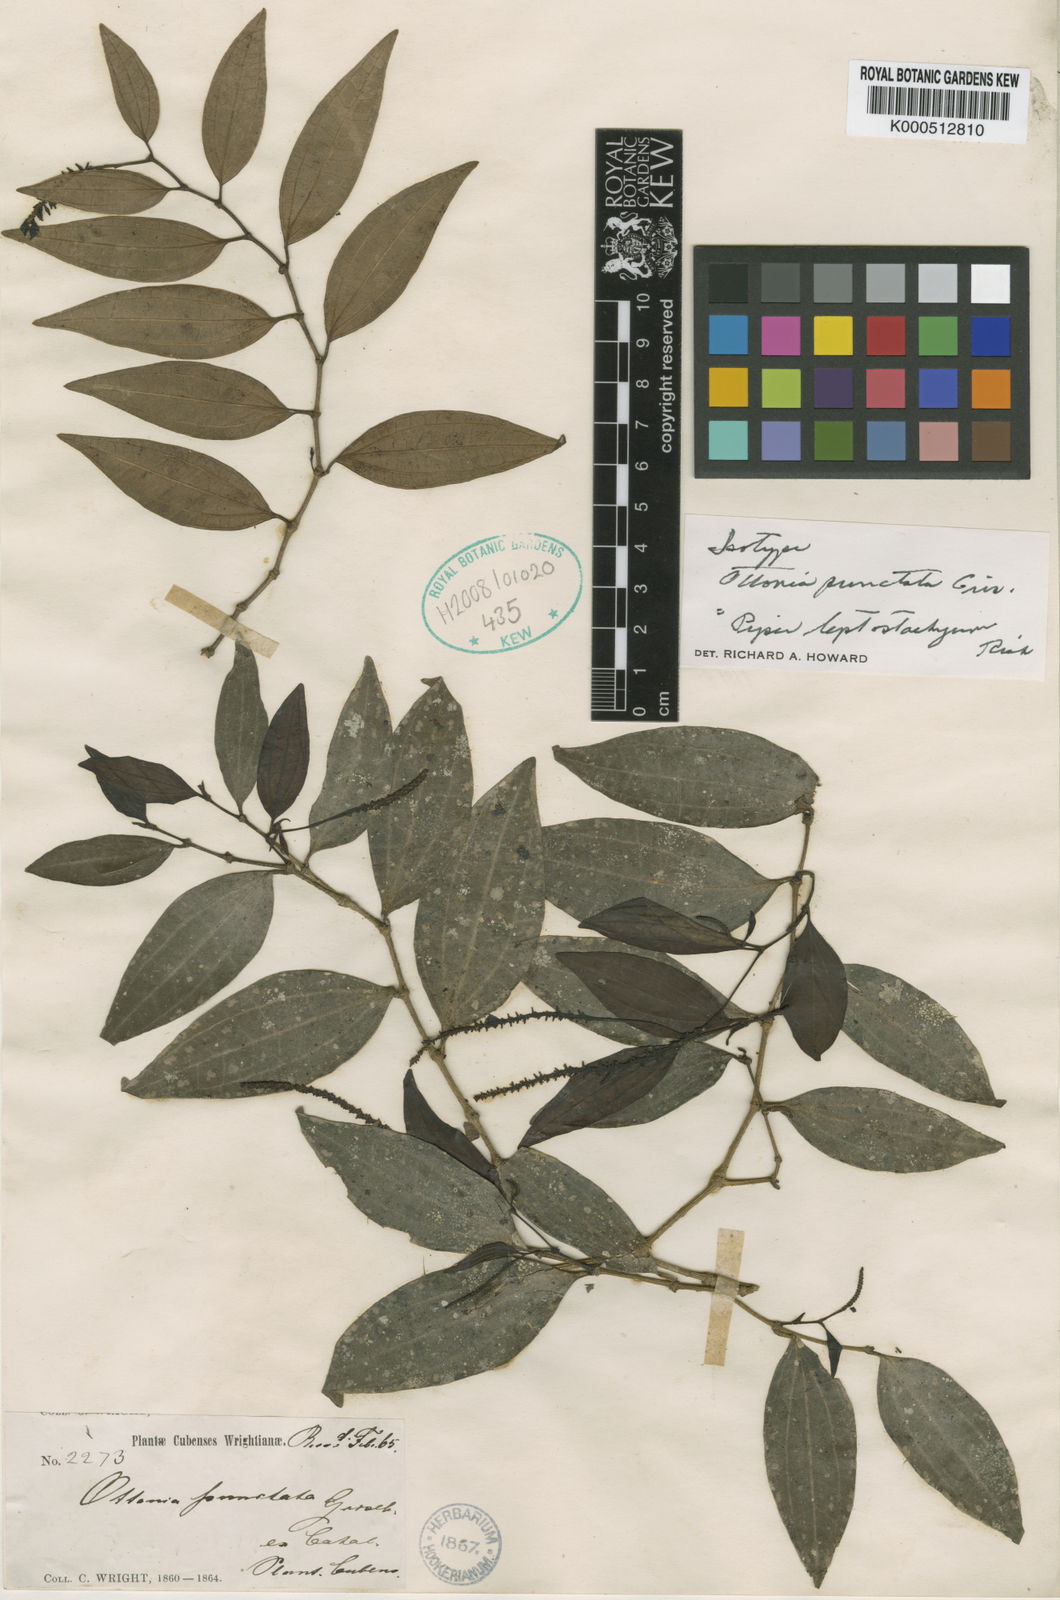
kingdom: Plantae
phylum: Tracheophyta
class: Magnoliopsida
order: Piperales
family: Piperaceae
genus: Piper
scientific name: Piper lindenianum
